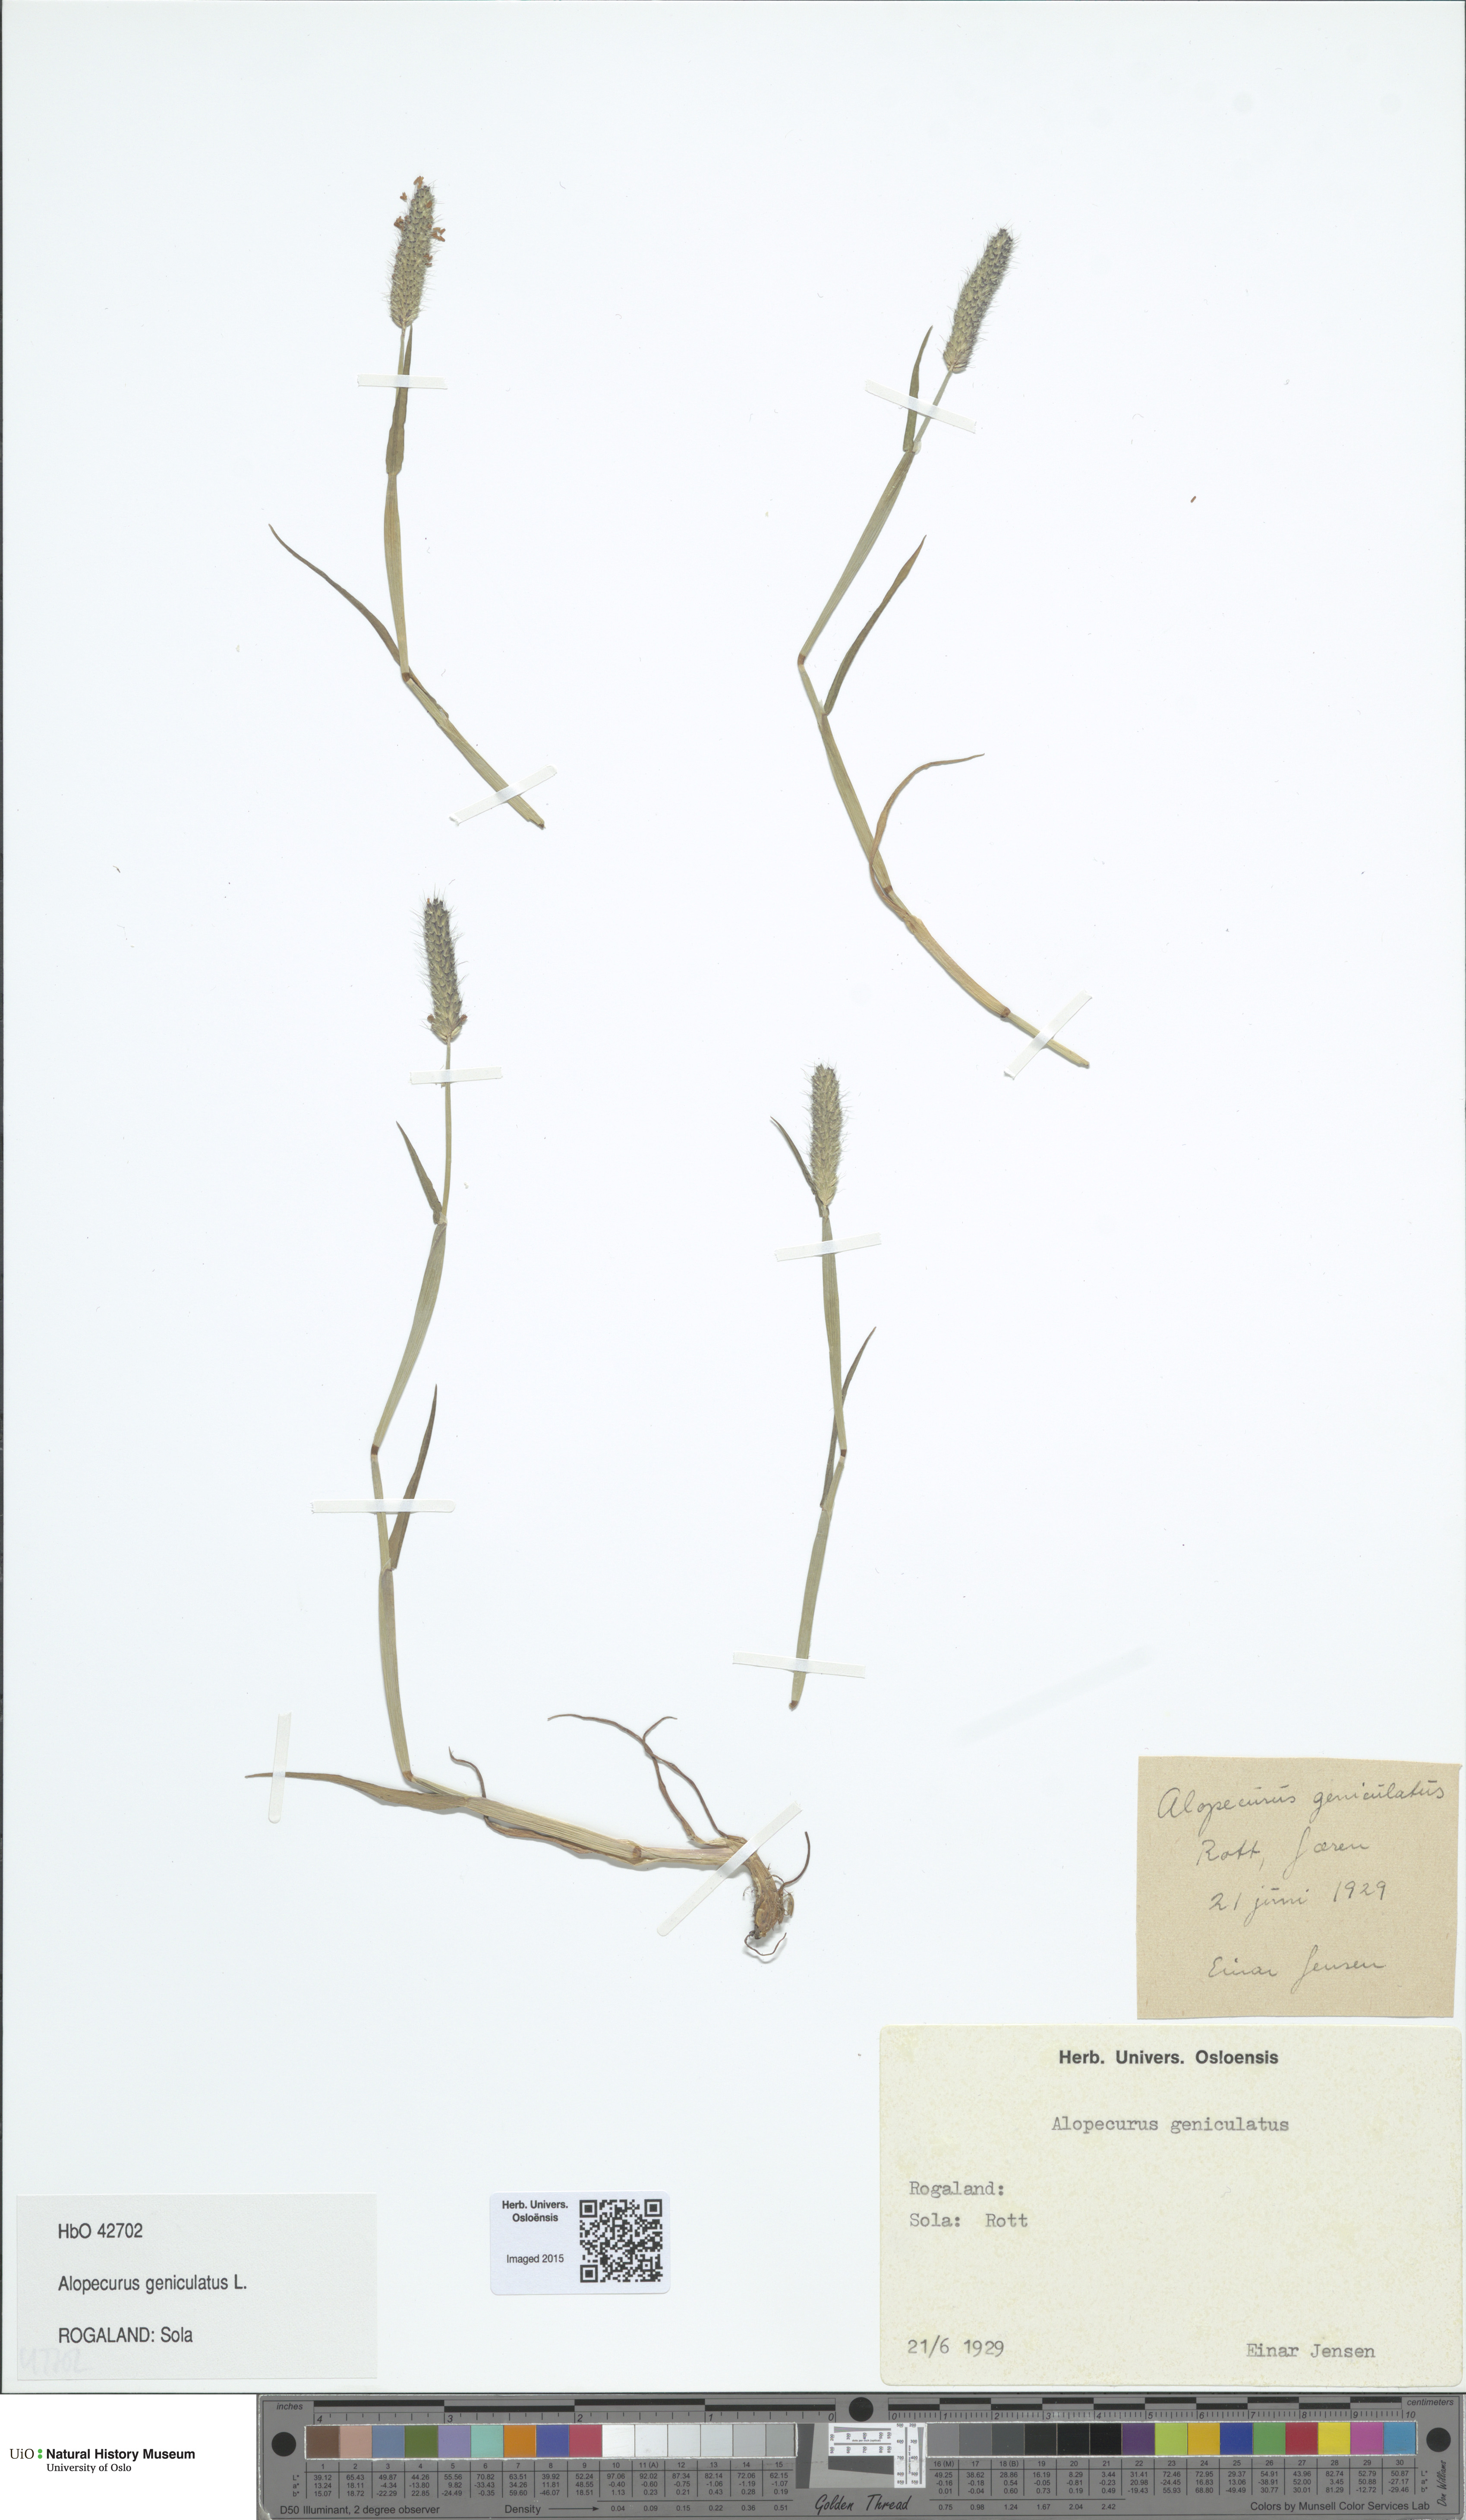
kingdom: Plantae
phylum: Tracheophyta
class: Liliopsida
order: Poales
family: Poaceae
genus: Alopecurus
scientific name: Alopecurus geniculatus
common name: Water foxtail
